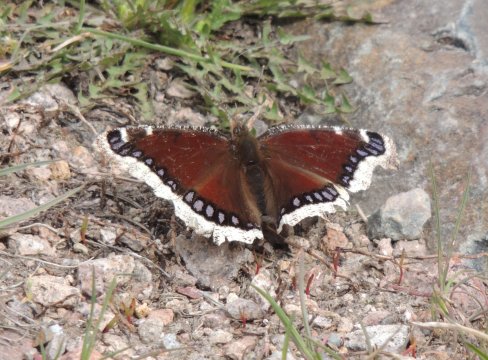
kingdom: Animalia
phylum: Arthropoda
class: Insecta
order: Lepidoptera
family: Nymphalidae
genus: Nymphalis
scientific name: Nymphalis antiopa
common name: Mourning Cloak
